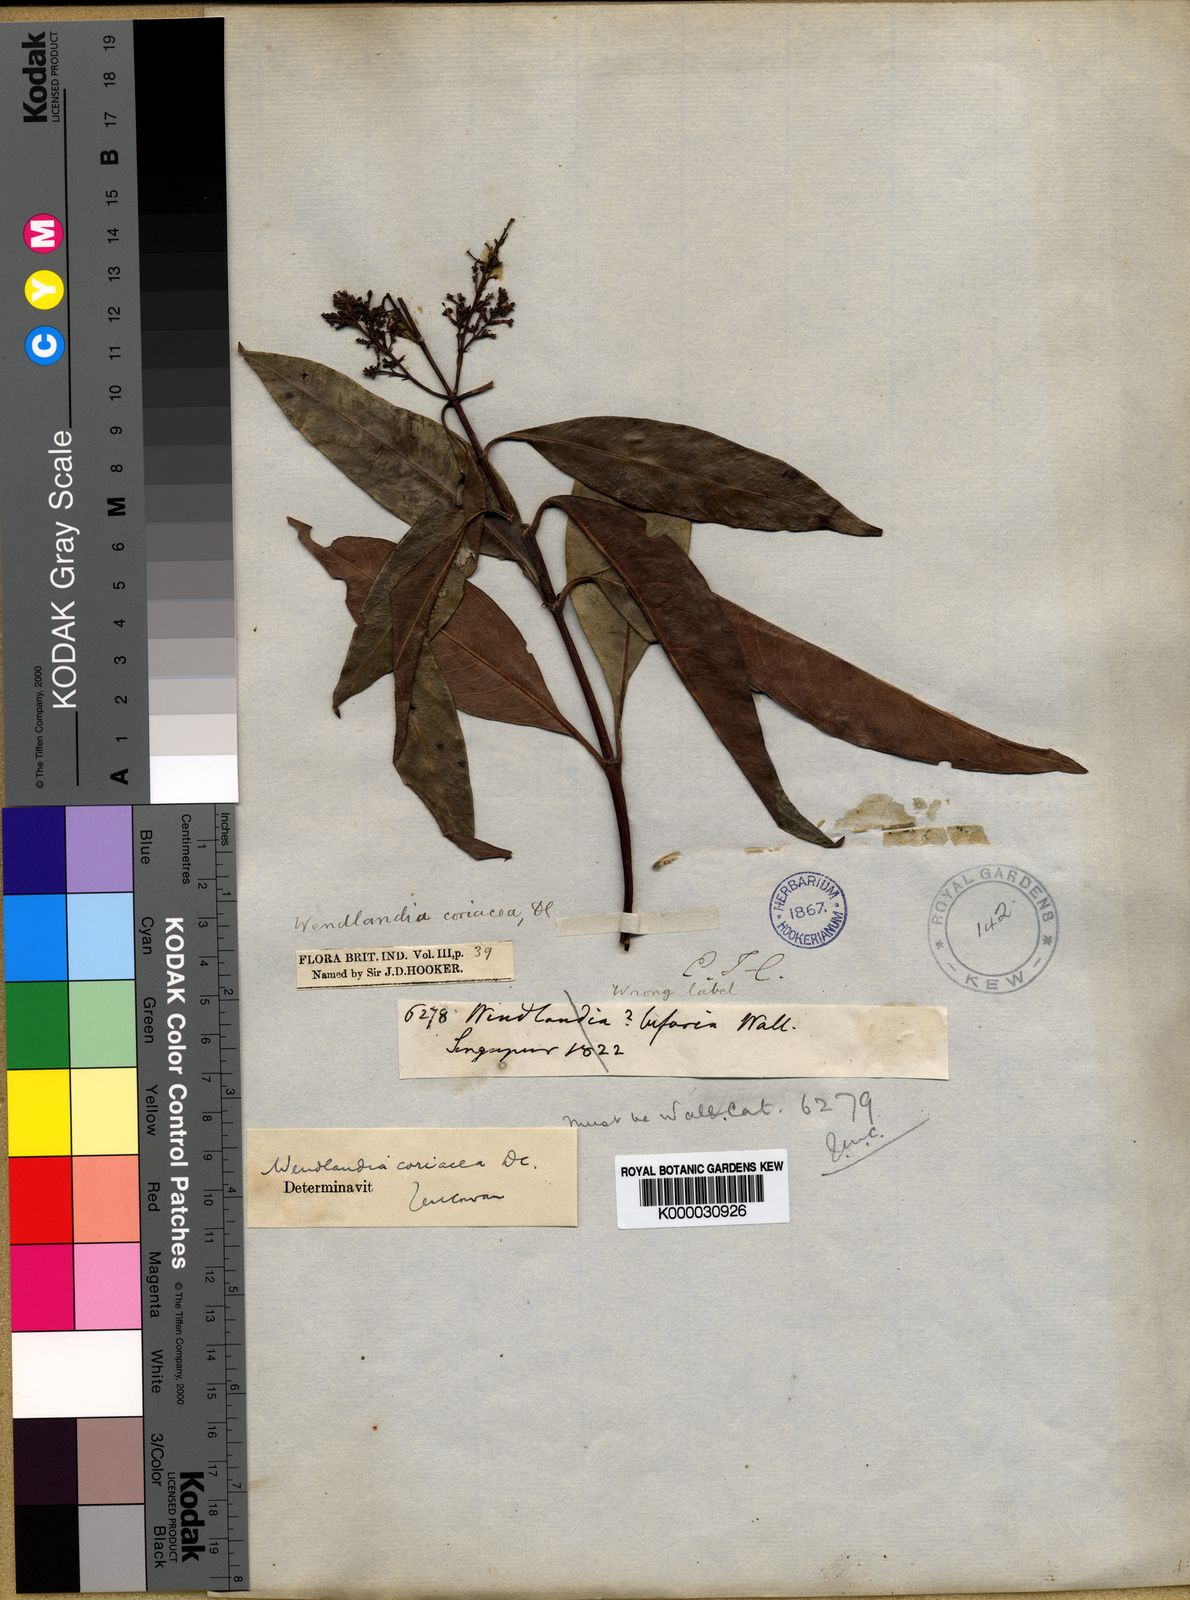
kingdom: Plantae
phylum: Tracheophyta
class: Magnoliopsida
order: Gentianales
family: Rubiaceae
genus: Wendlandia
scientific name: Wendlandia coriacea
